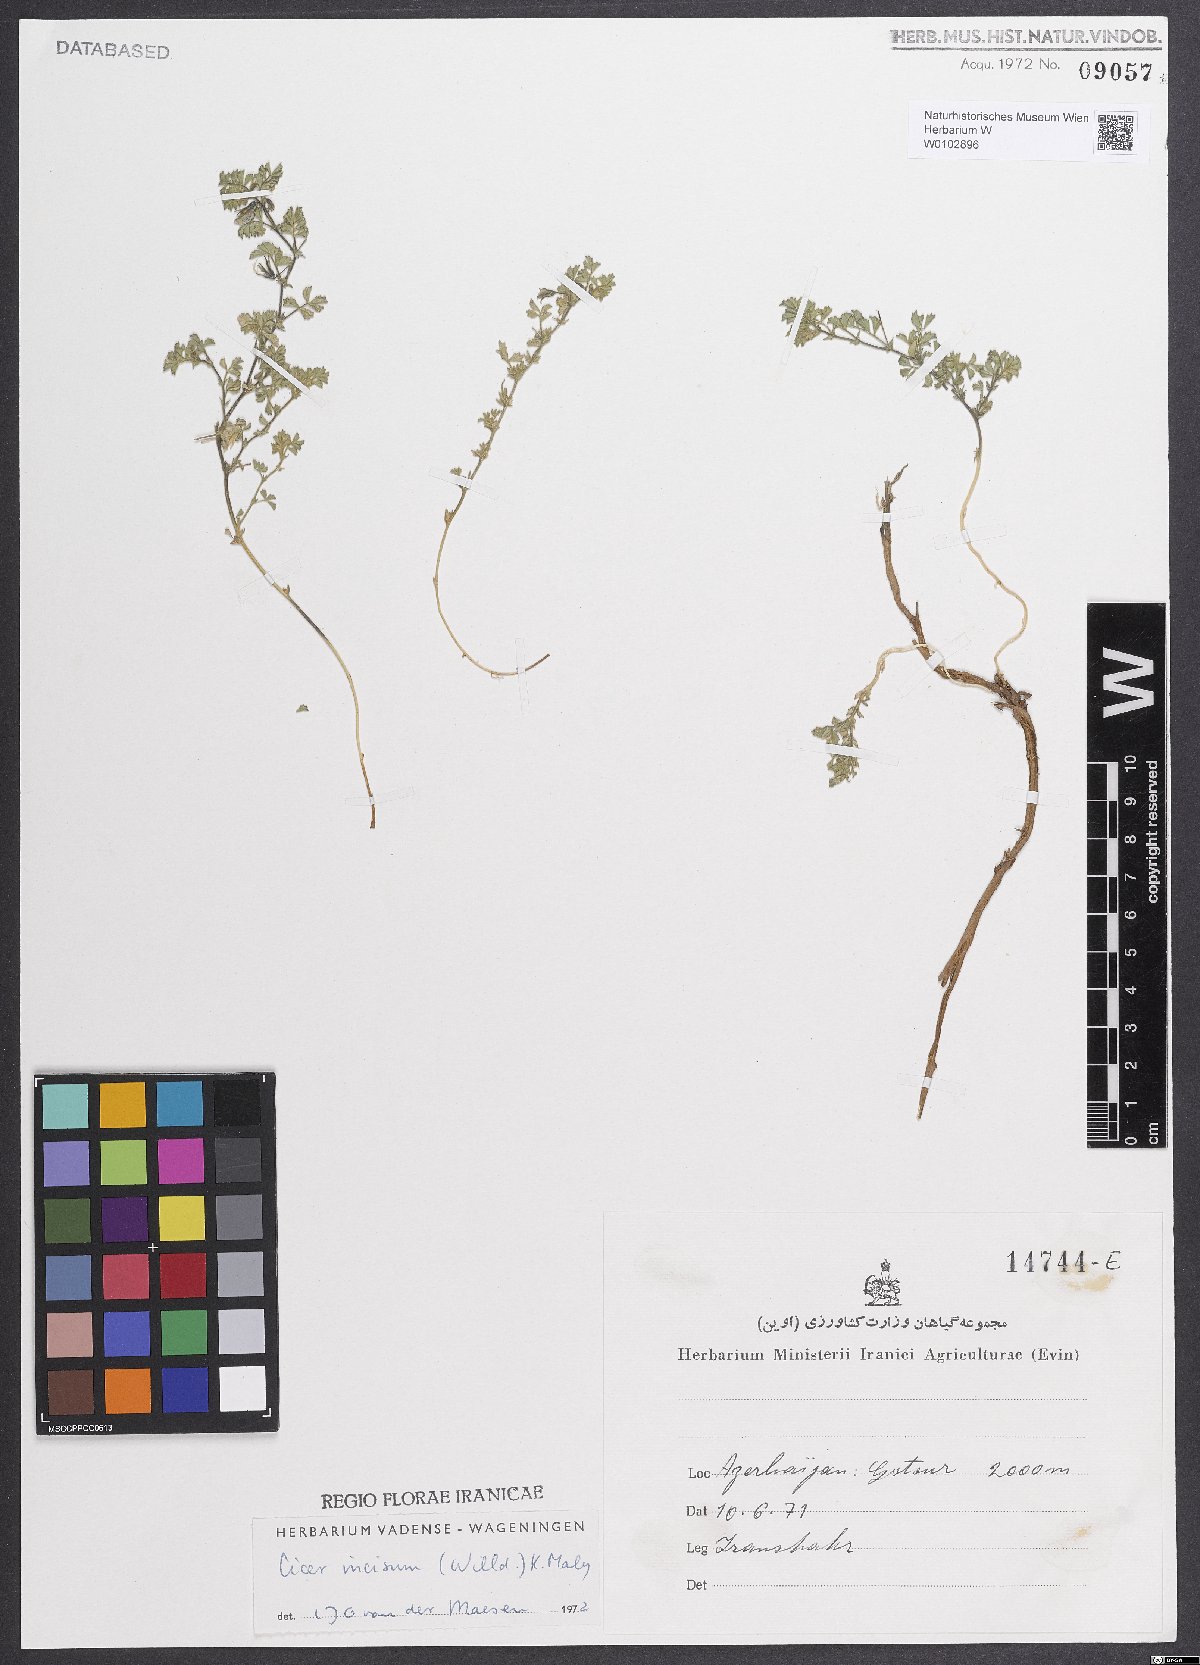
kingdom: Plantae
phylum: Tracheophyta
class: Magnoliopsida
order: Fabales
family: Fabaceae
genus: Cicer
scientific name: Cicer incisum
